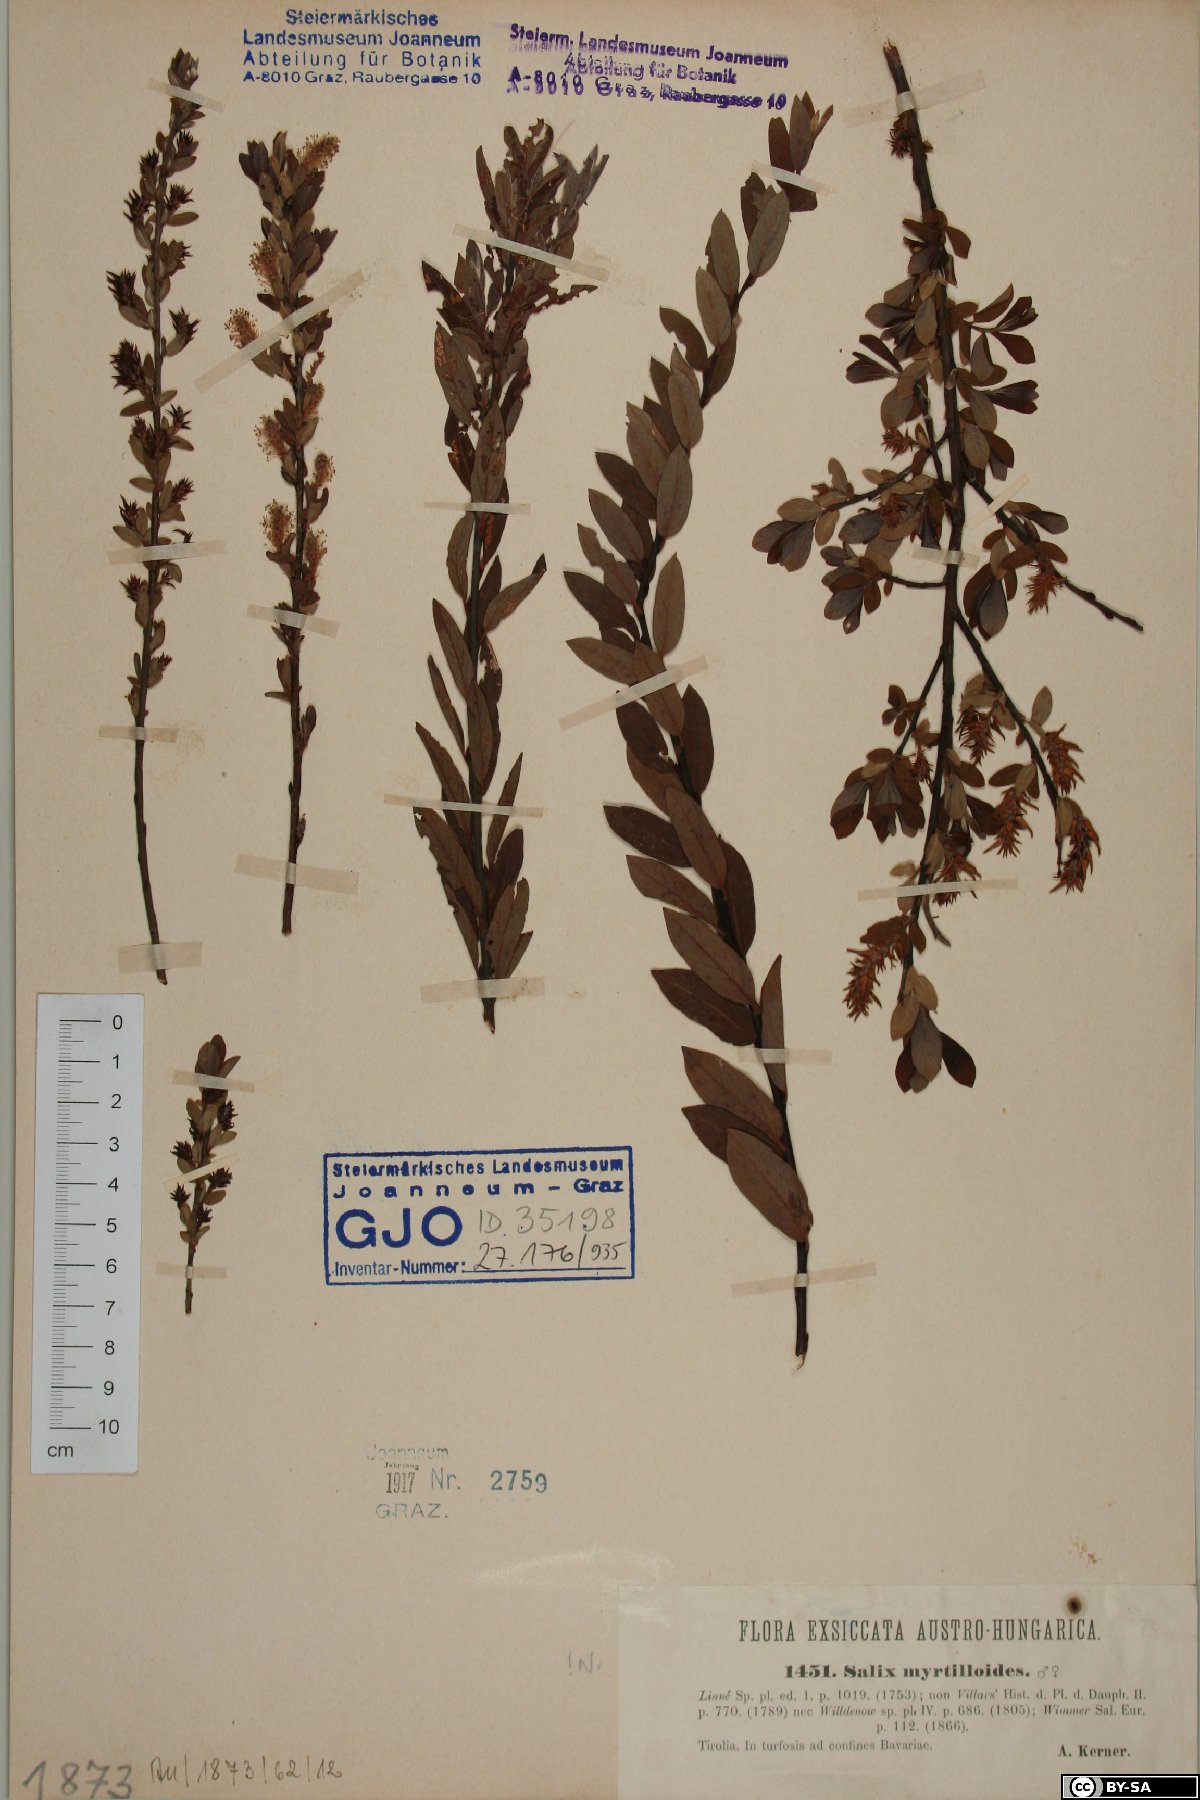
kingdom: Plantae
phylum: Tracheophyta
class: Magnoliopsida
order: Malpighiales
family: Salicaceae
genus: Salix
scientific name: Salix myrtilloides
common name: Myrtle-leaved willow
